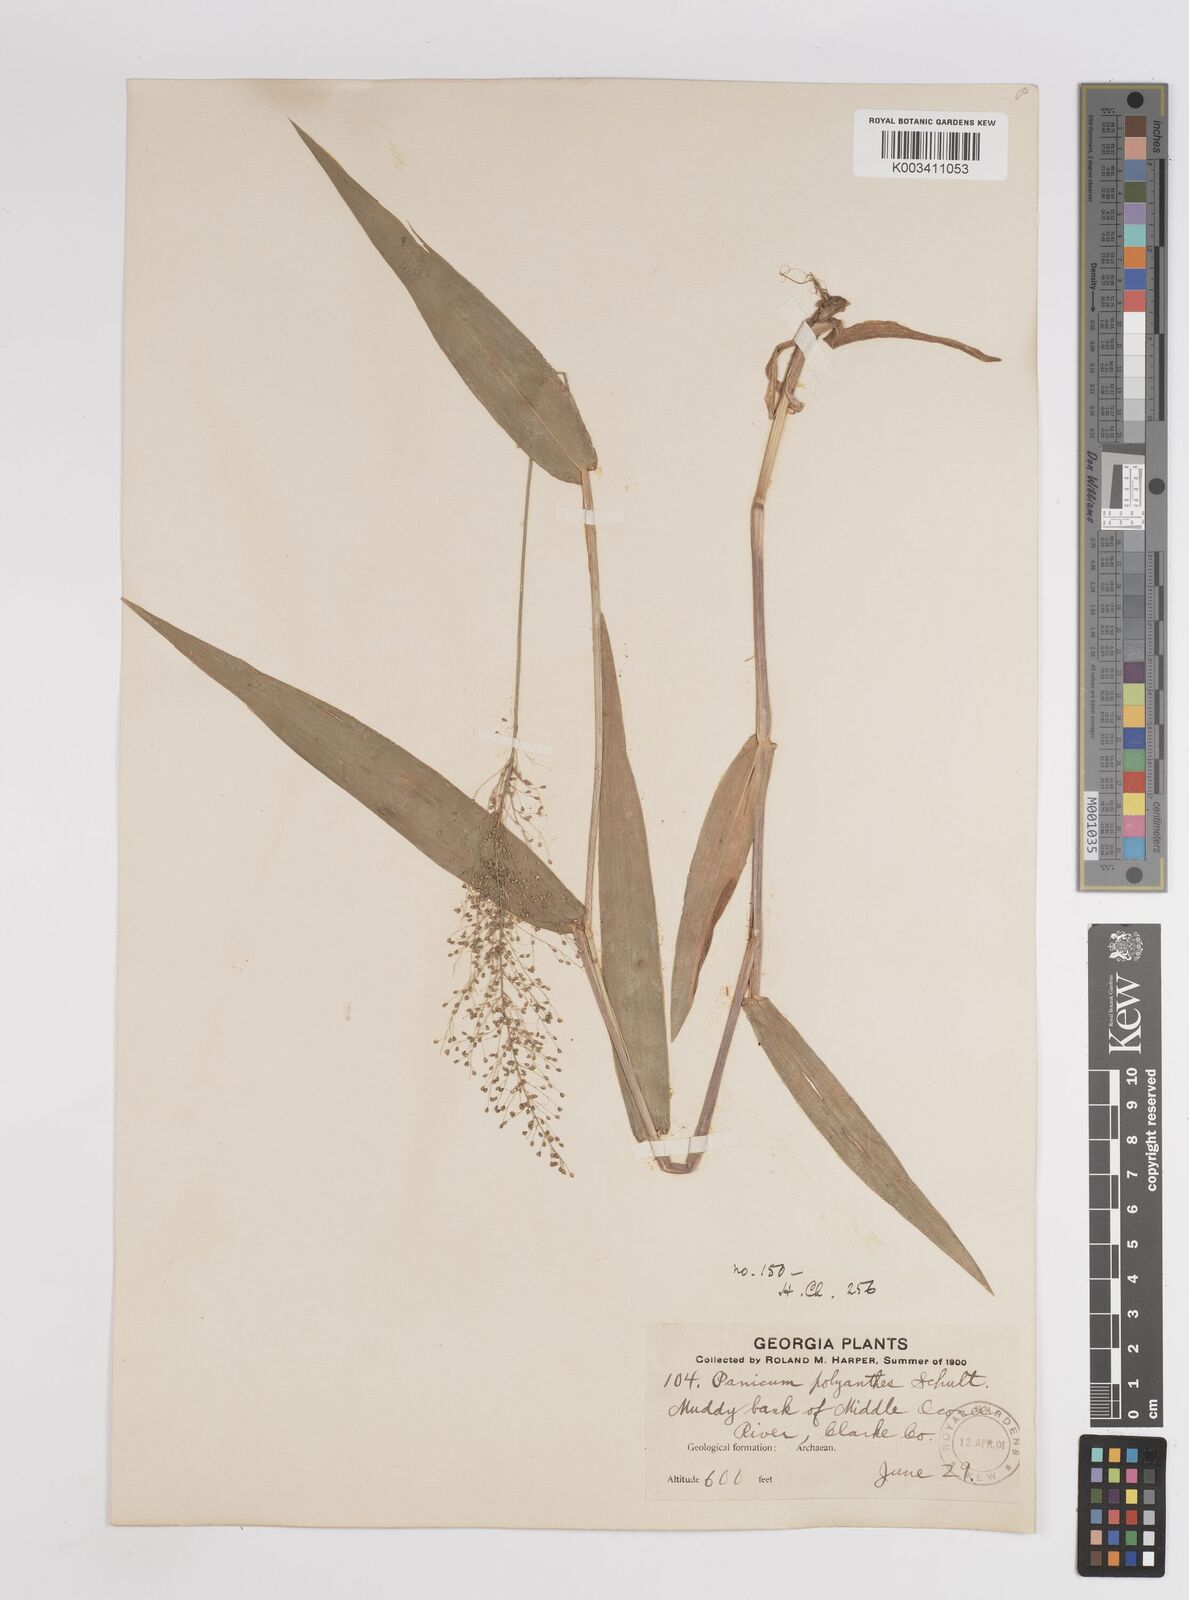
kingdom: Plantae
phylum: Tracheophyta
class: Liliopsida
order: Poales
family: Poaceae
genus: Dichanthelium
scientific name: Dichanthelium polyanthes
